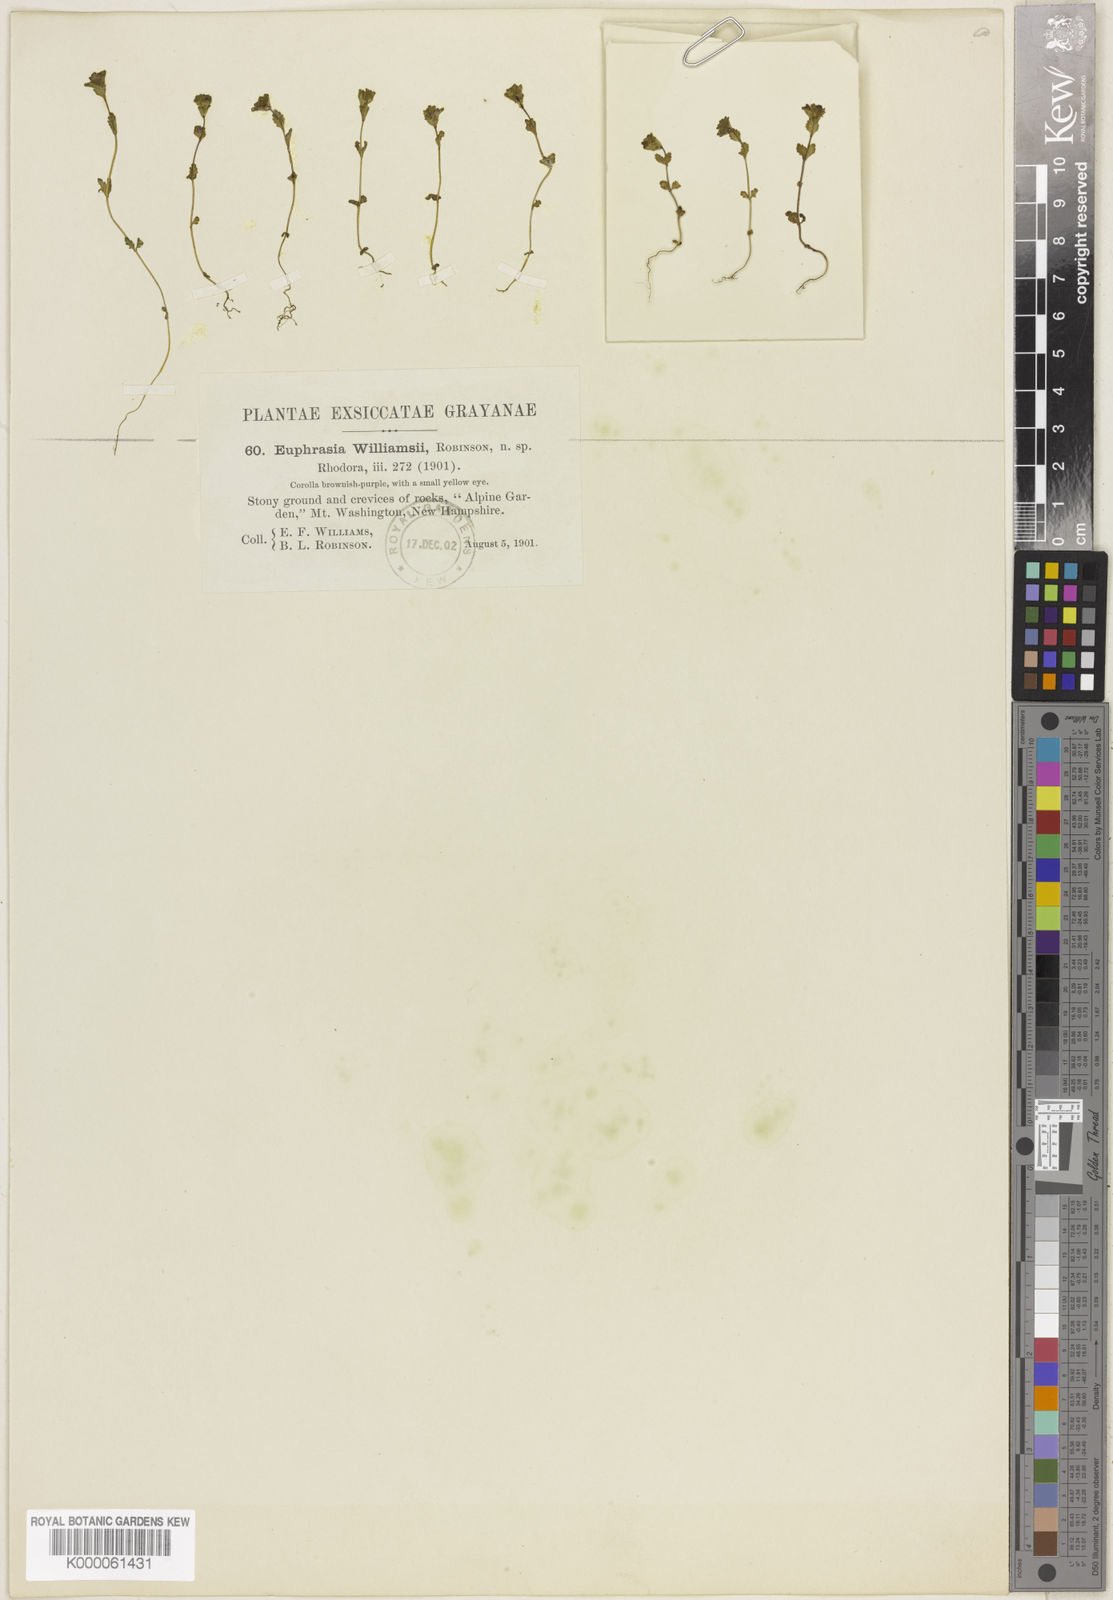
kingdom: Plantae
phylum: Tracheophyta
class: Magnoliopsida
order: Lamiales
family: Orobanchaceae
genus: Euphrasia
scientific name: Euphrasia oakesii
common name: Oakes' eyebright
